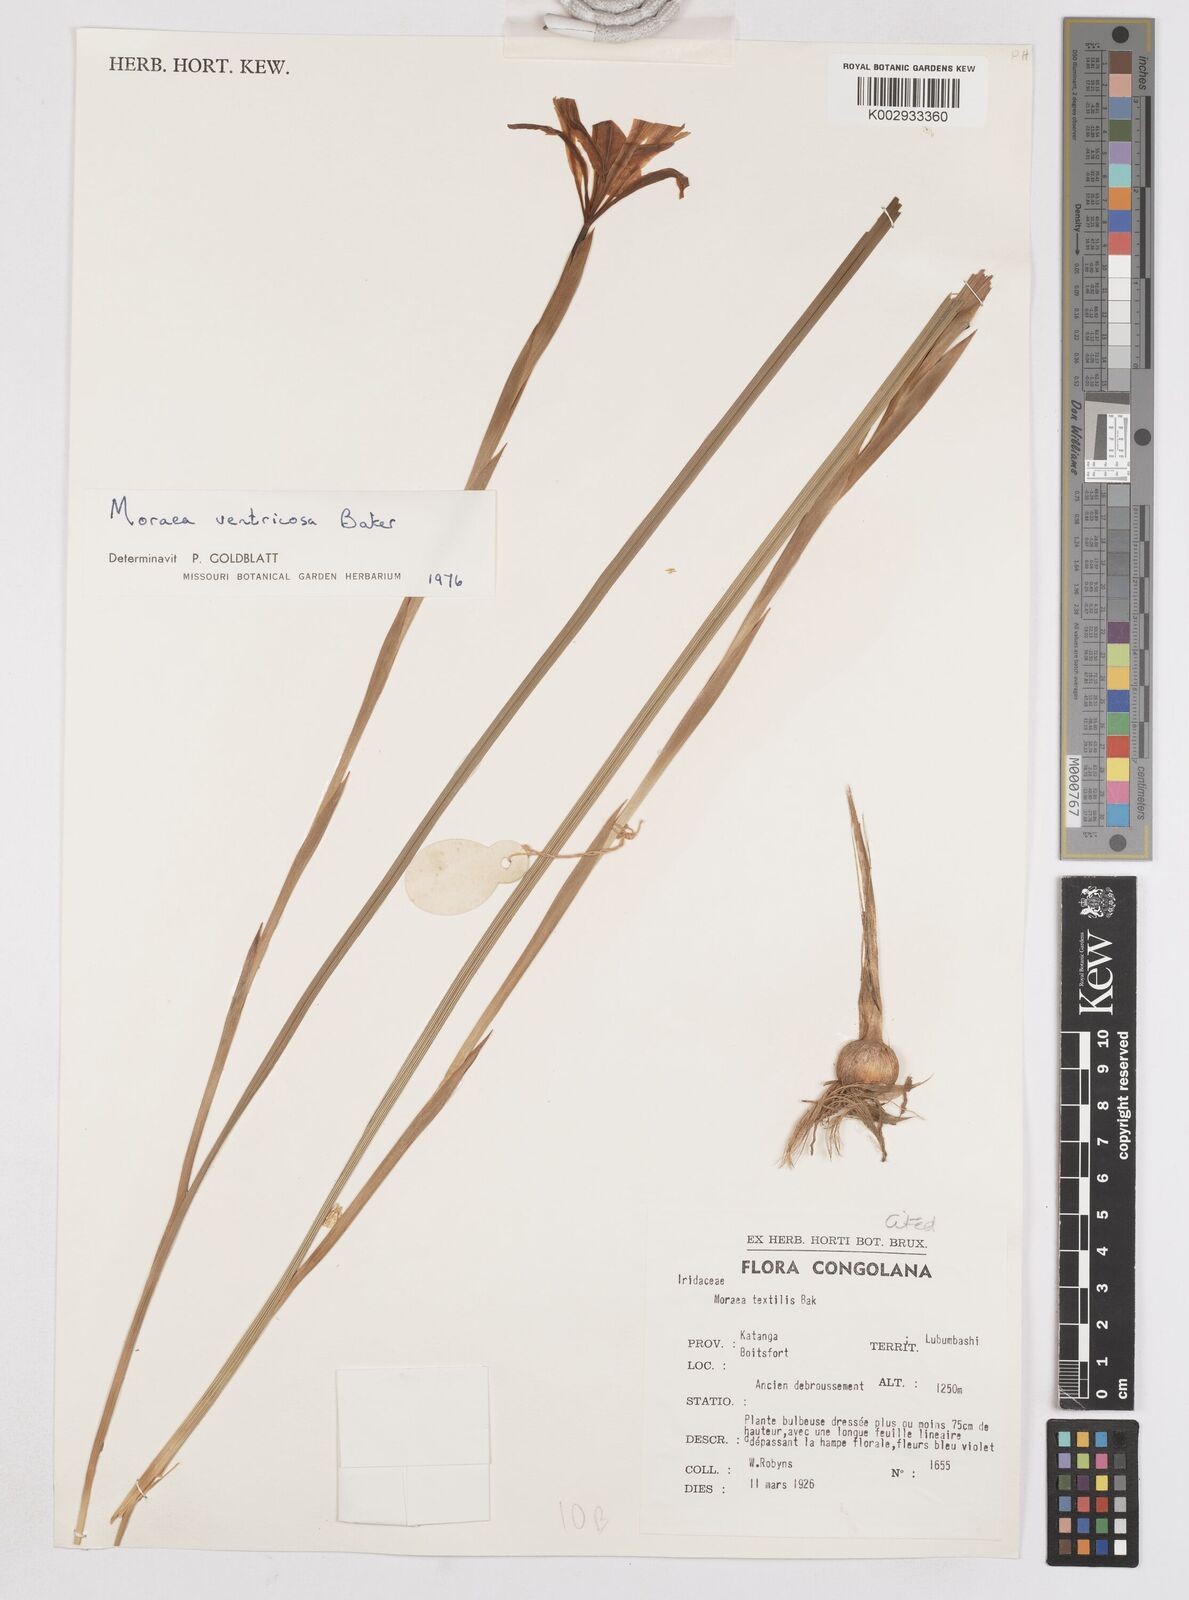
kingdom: Plantae
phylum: Tracheophyta
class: Liliopsida
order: Asparagales
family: Iridaceae
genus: Moraea
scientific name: Moraea ventricosa
